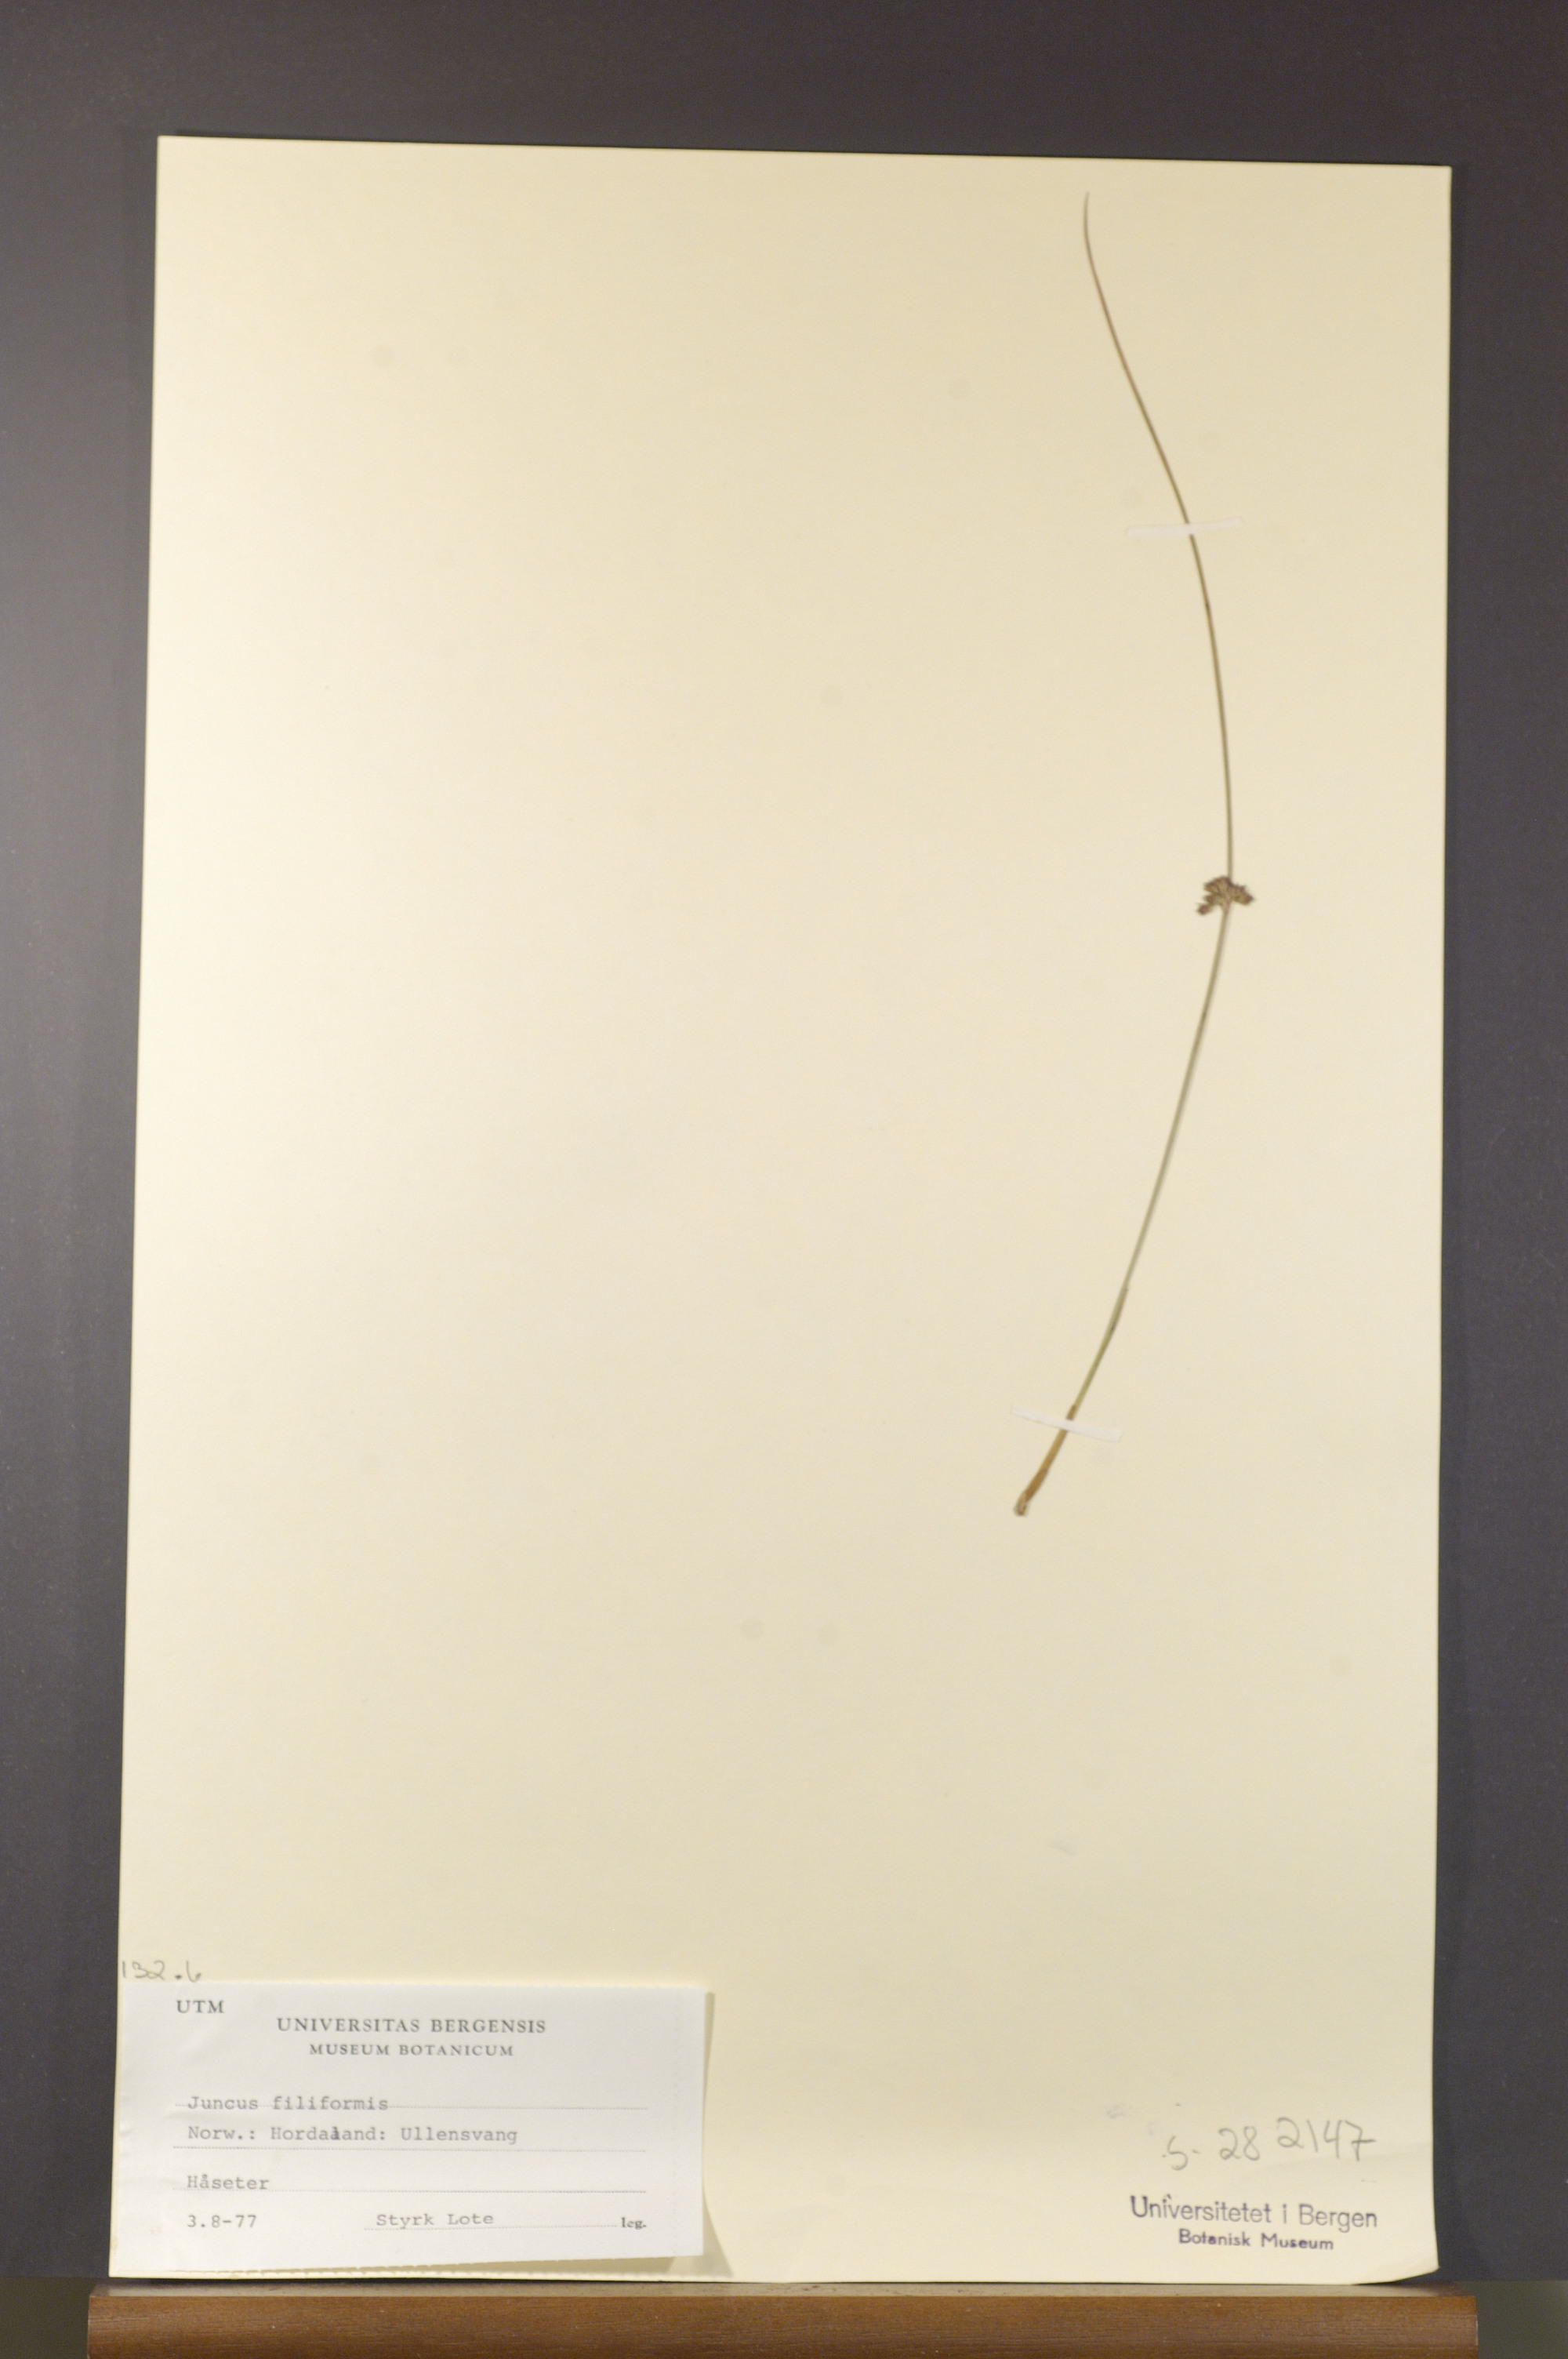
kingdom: Plantae
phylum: Tracheophyta
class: Liliopsida
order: Poales
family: Juncaceae
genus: Juncus
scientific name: Juncus filiformis
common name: Thread rush
